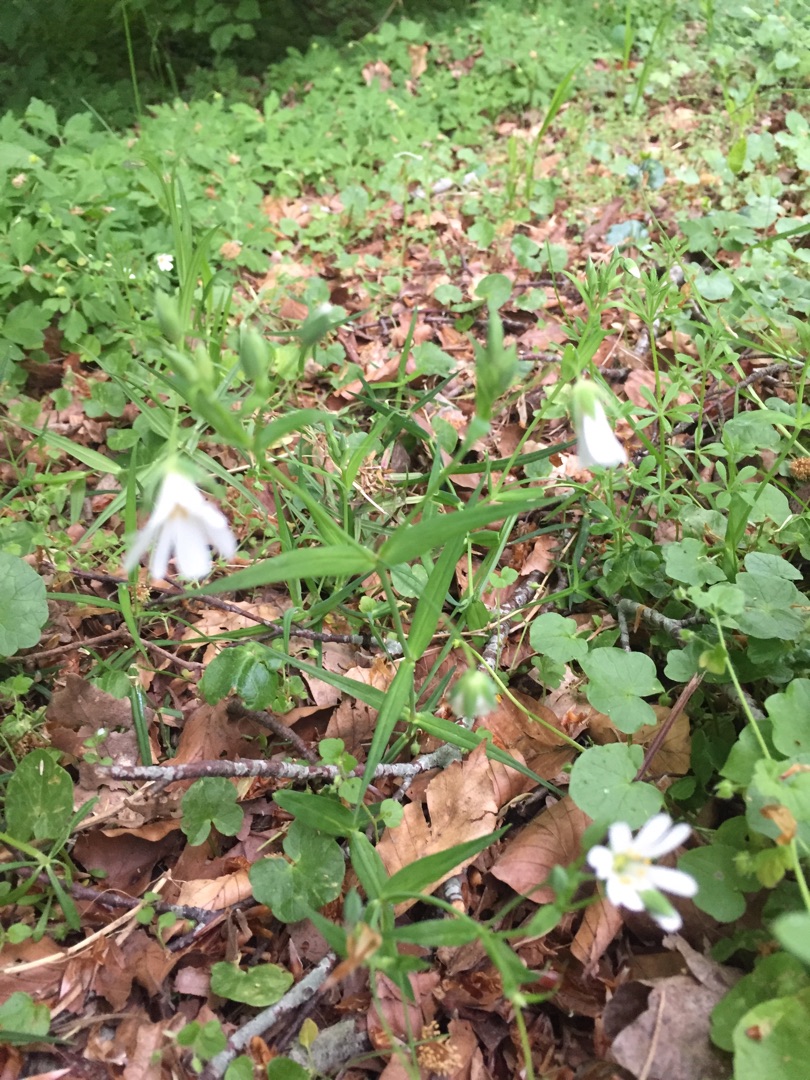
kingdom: Plantae
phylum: Tracheophyta
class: Magnoliopsida
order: Caryophyllales
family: Caryophyllaceae
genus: Rabelera
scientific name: Rabelera holostea
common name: Stor fladstjerne
